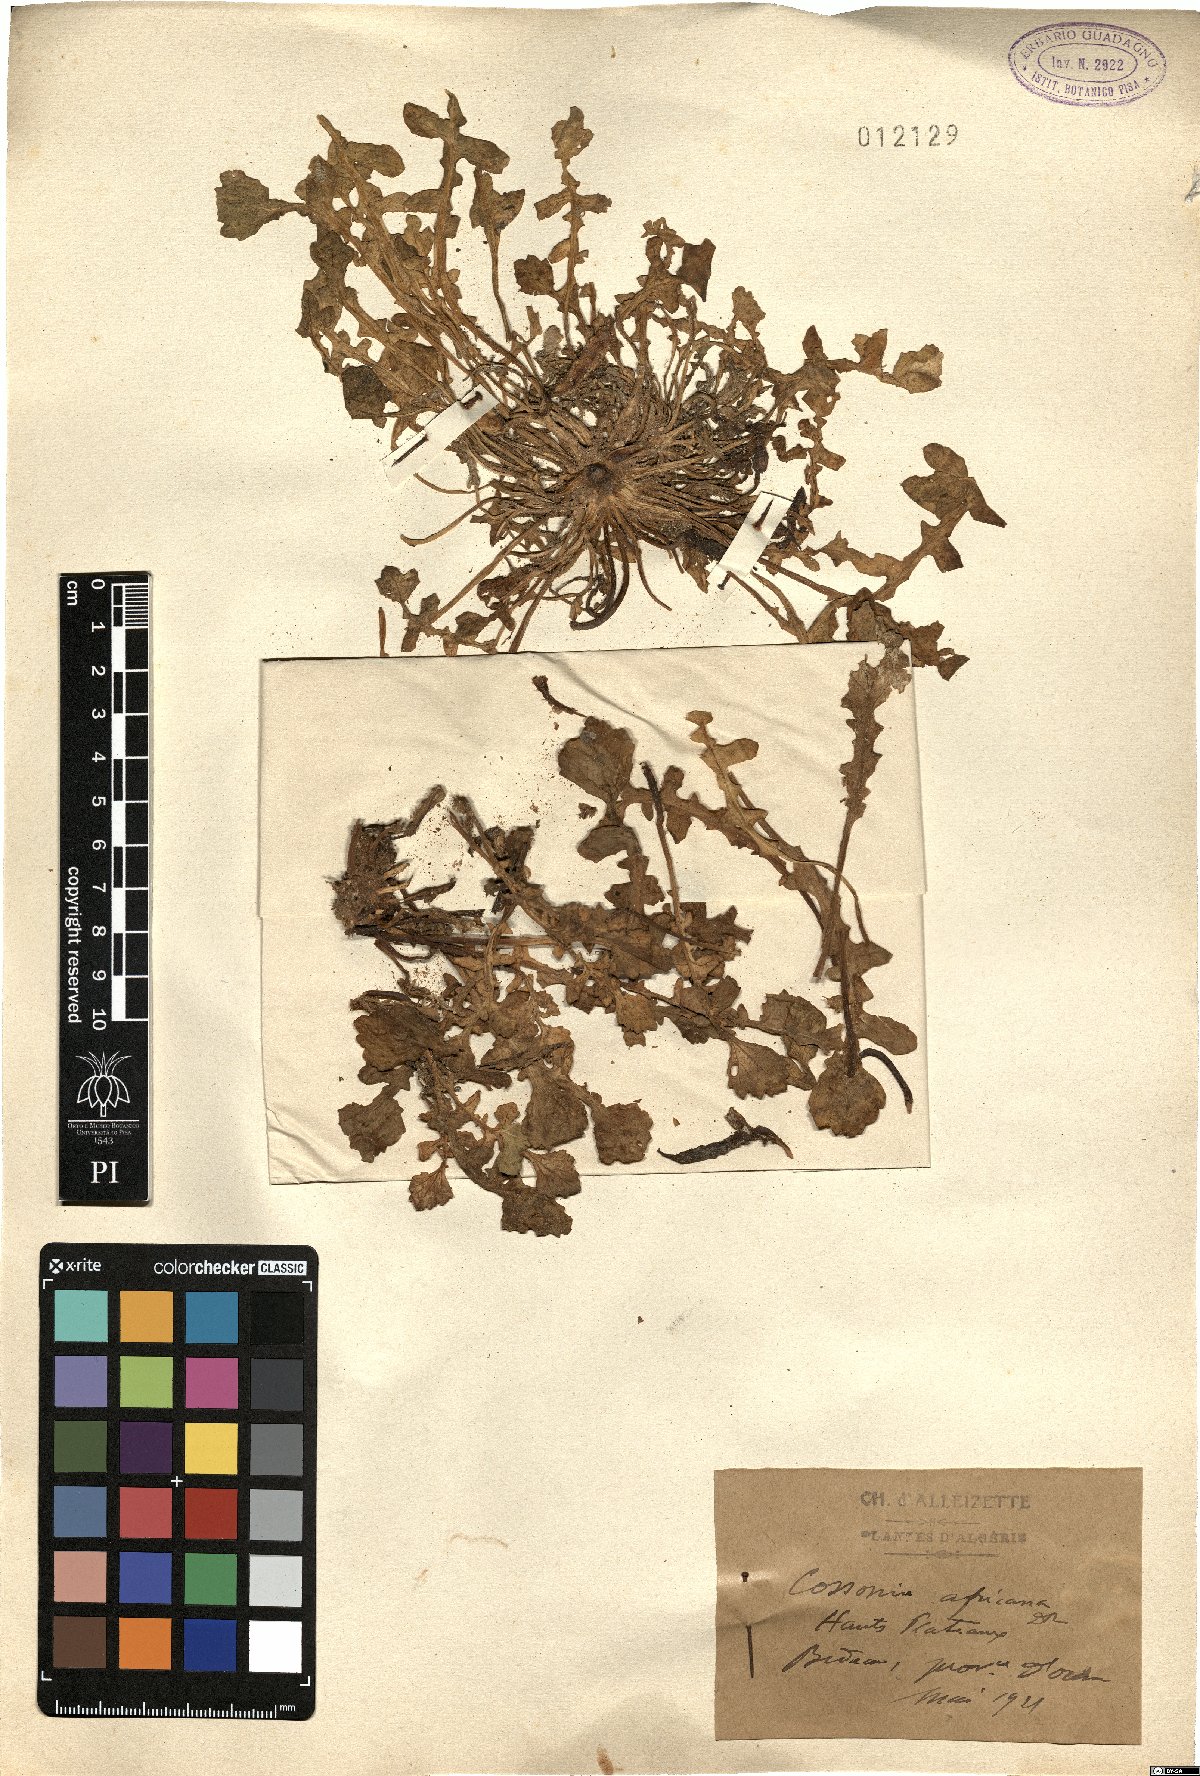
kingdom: Plantae
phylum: Tracheophyta
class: Magnoliopsida
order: Brassicales
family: Brassicaceae
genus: Raffenaldia
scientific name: Raffenaldia primuloides
